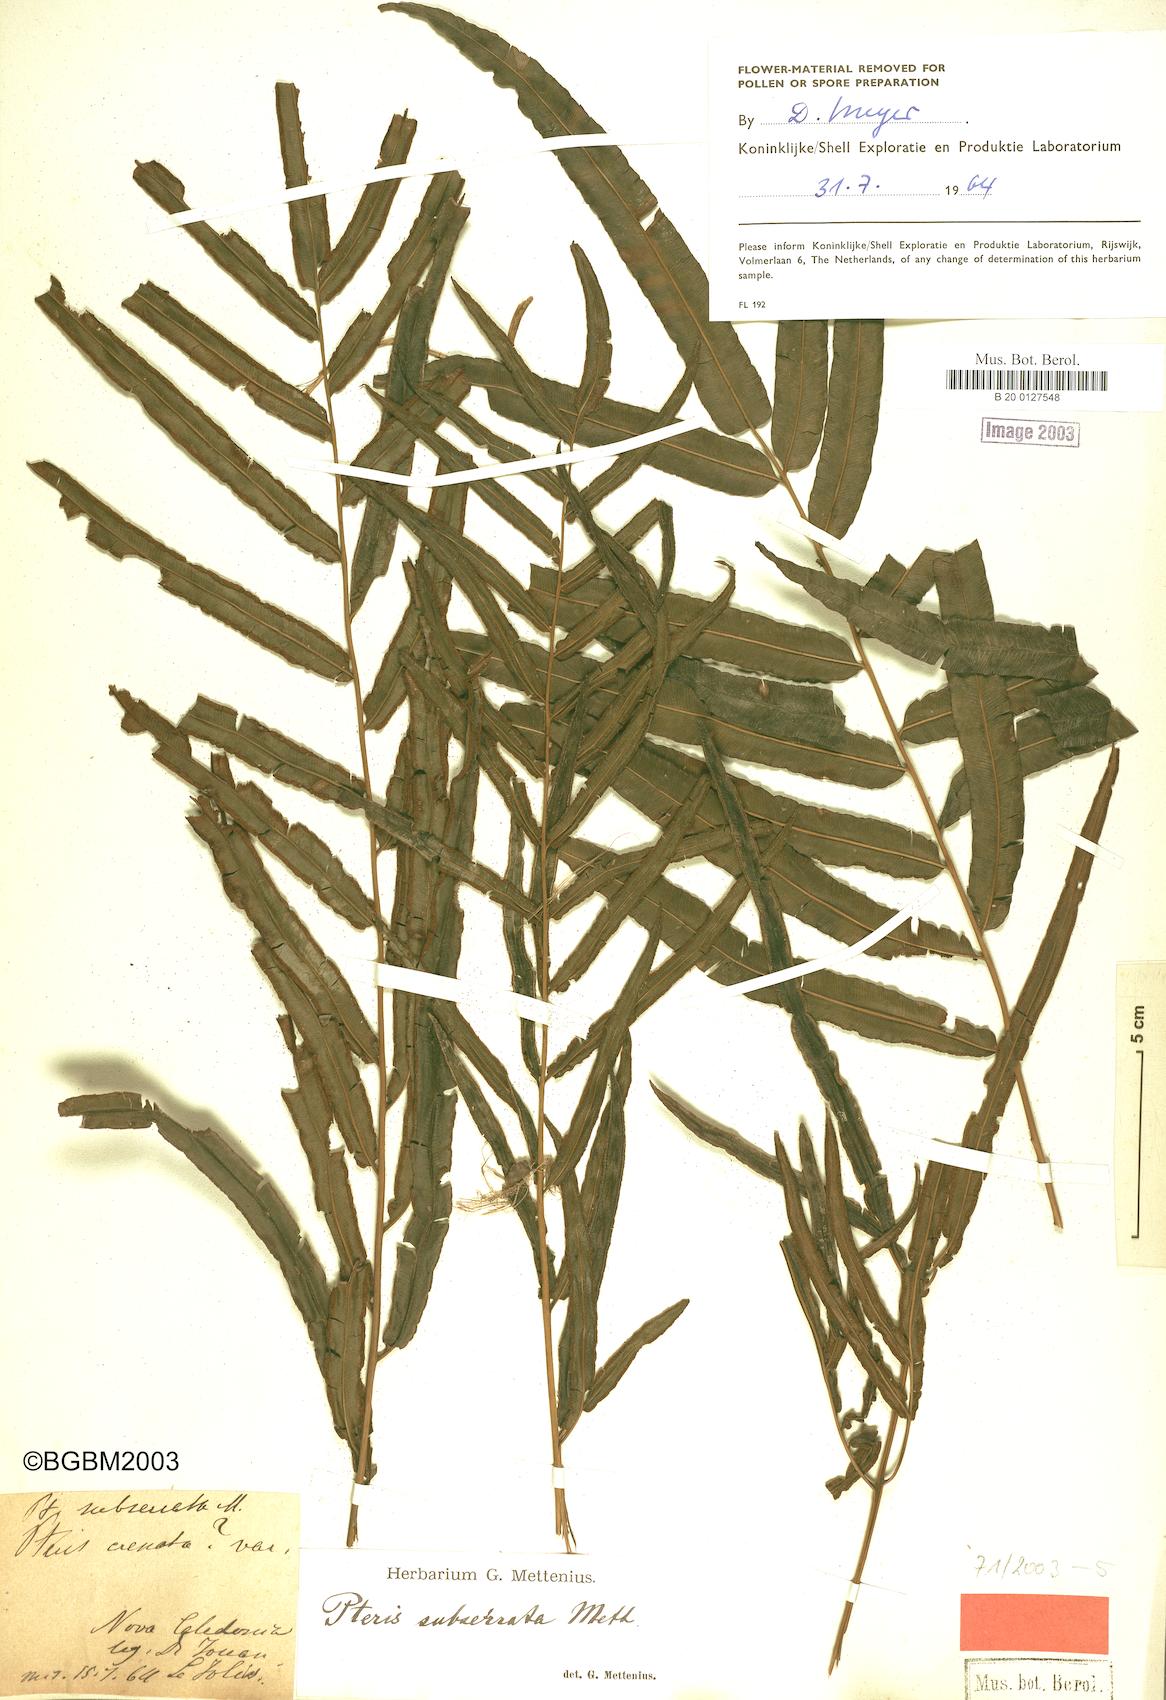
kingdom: Plantae
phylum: Tracheophyta
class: Polypodiopsida
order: Polypodiales
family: Pteridaceae
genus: Pteris
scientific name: Pteris balansae
